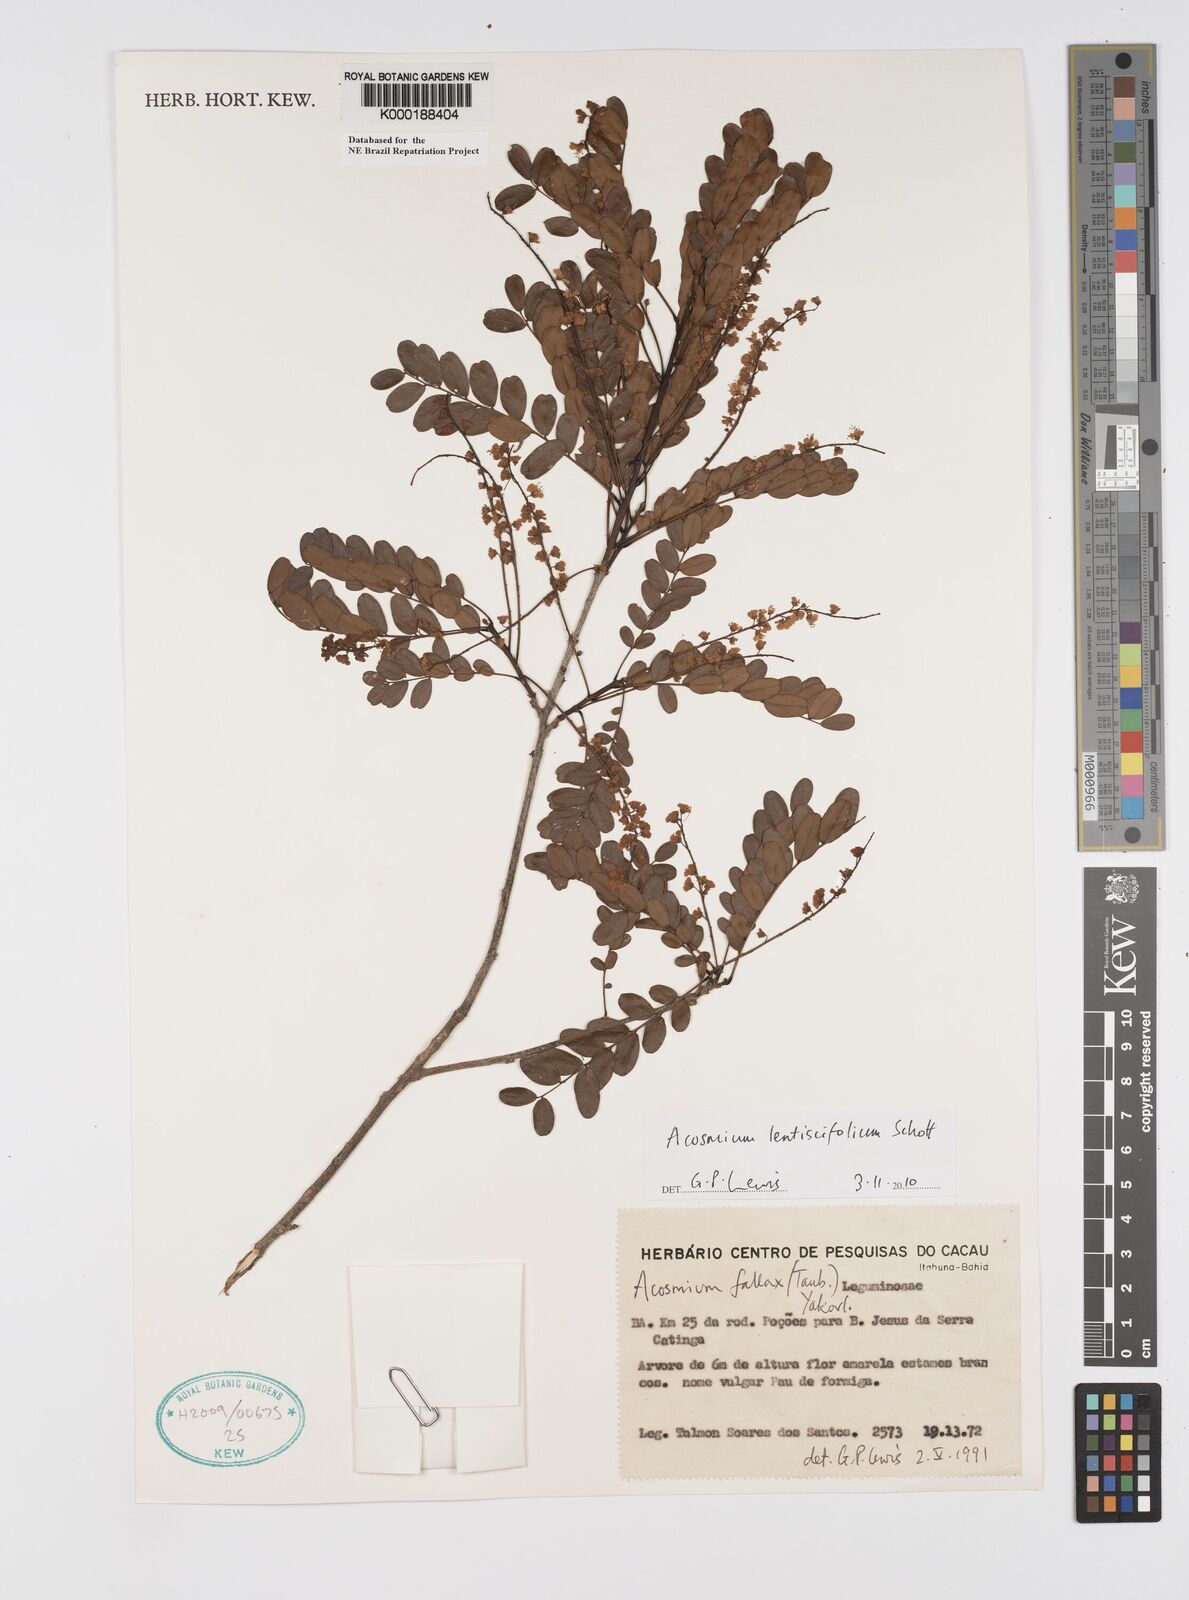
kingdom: Plantae
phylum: Tracheophyta
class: Magnoliopsida
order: Fabales
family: Fabaceae
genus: Acosmium
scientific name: Acosmium lentiscifolium
